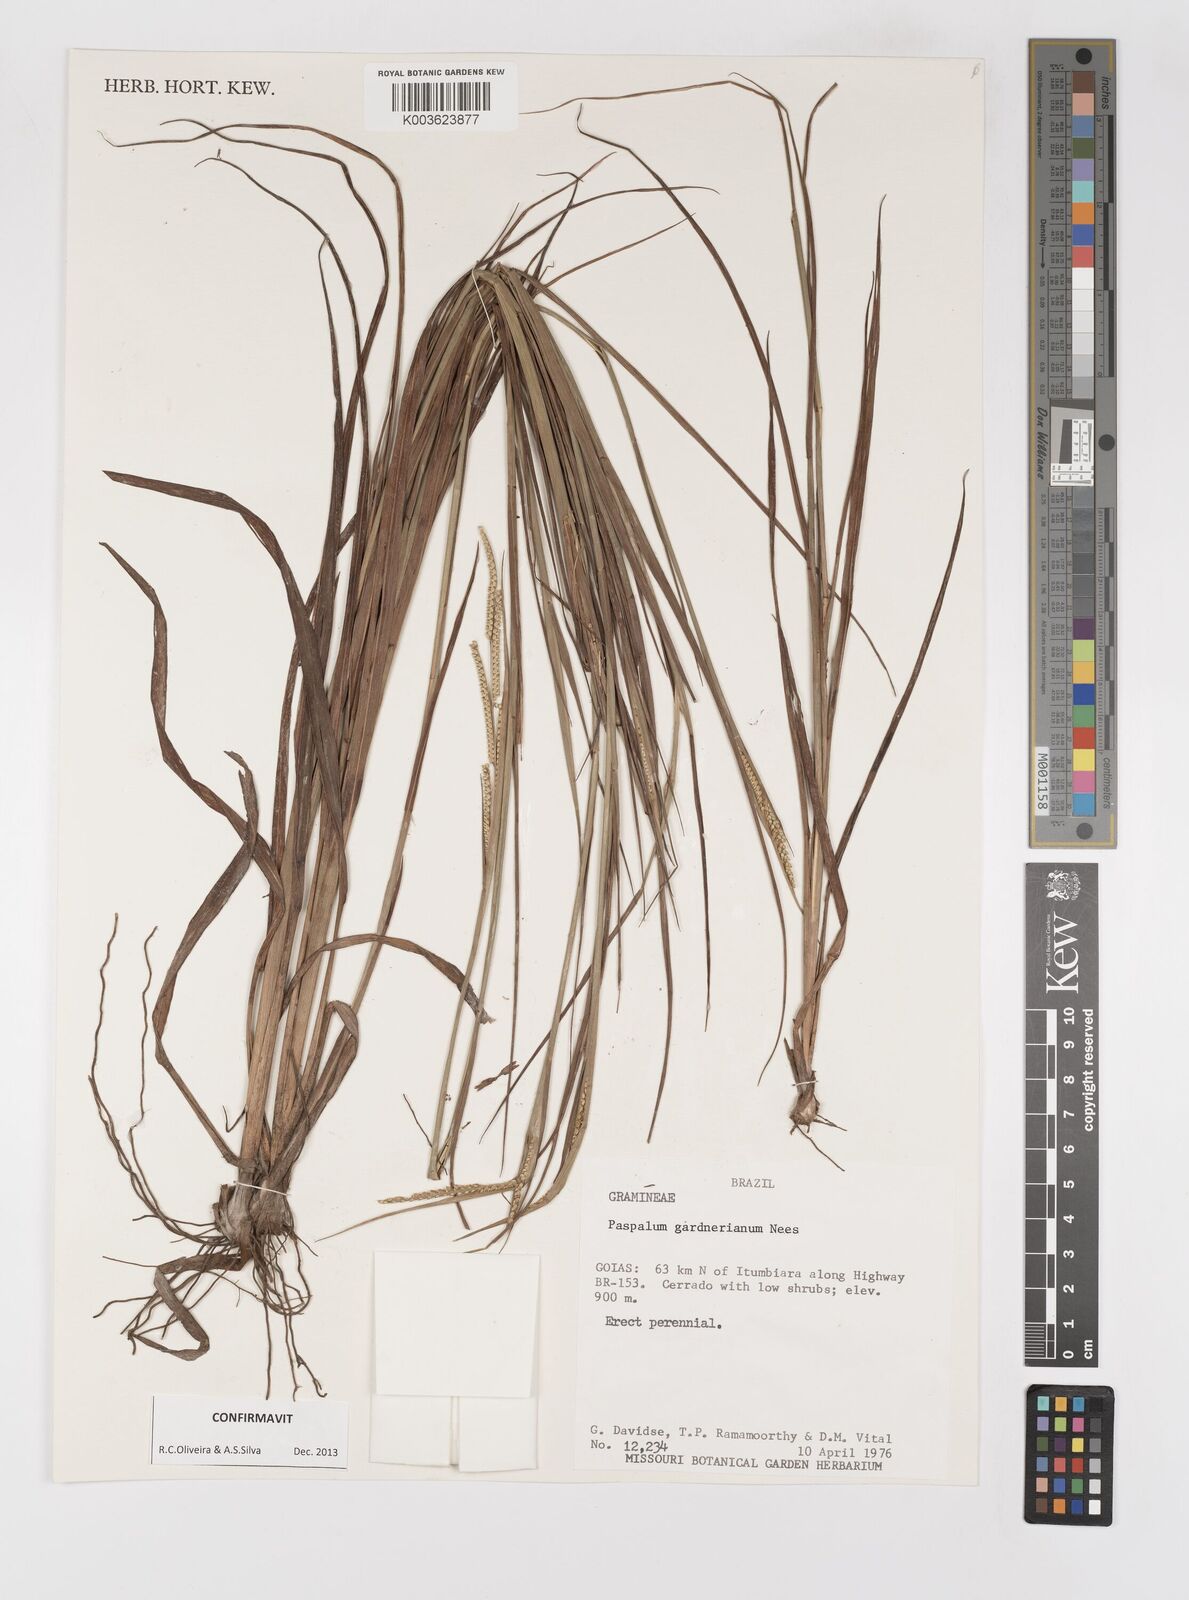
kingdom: Plantae
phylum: Tracheophyta
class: Liliopsida
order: Poales
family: Poaceae
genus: Paspalum
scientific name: Paspalum gardnerianum
